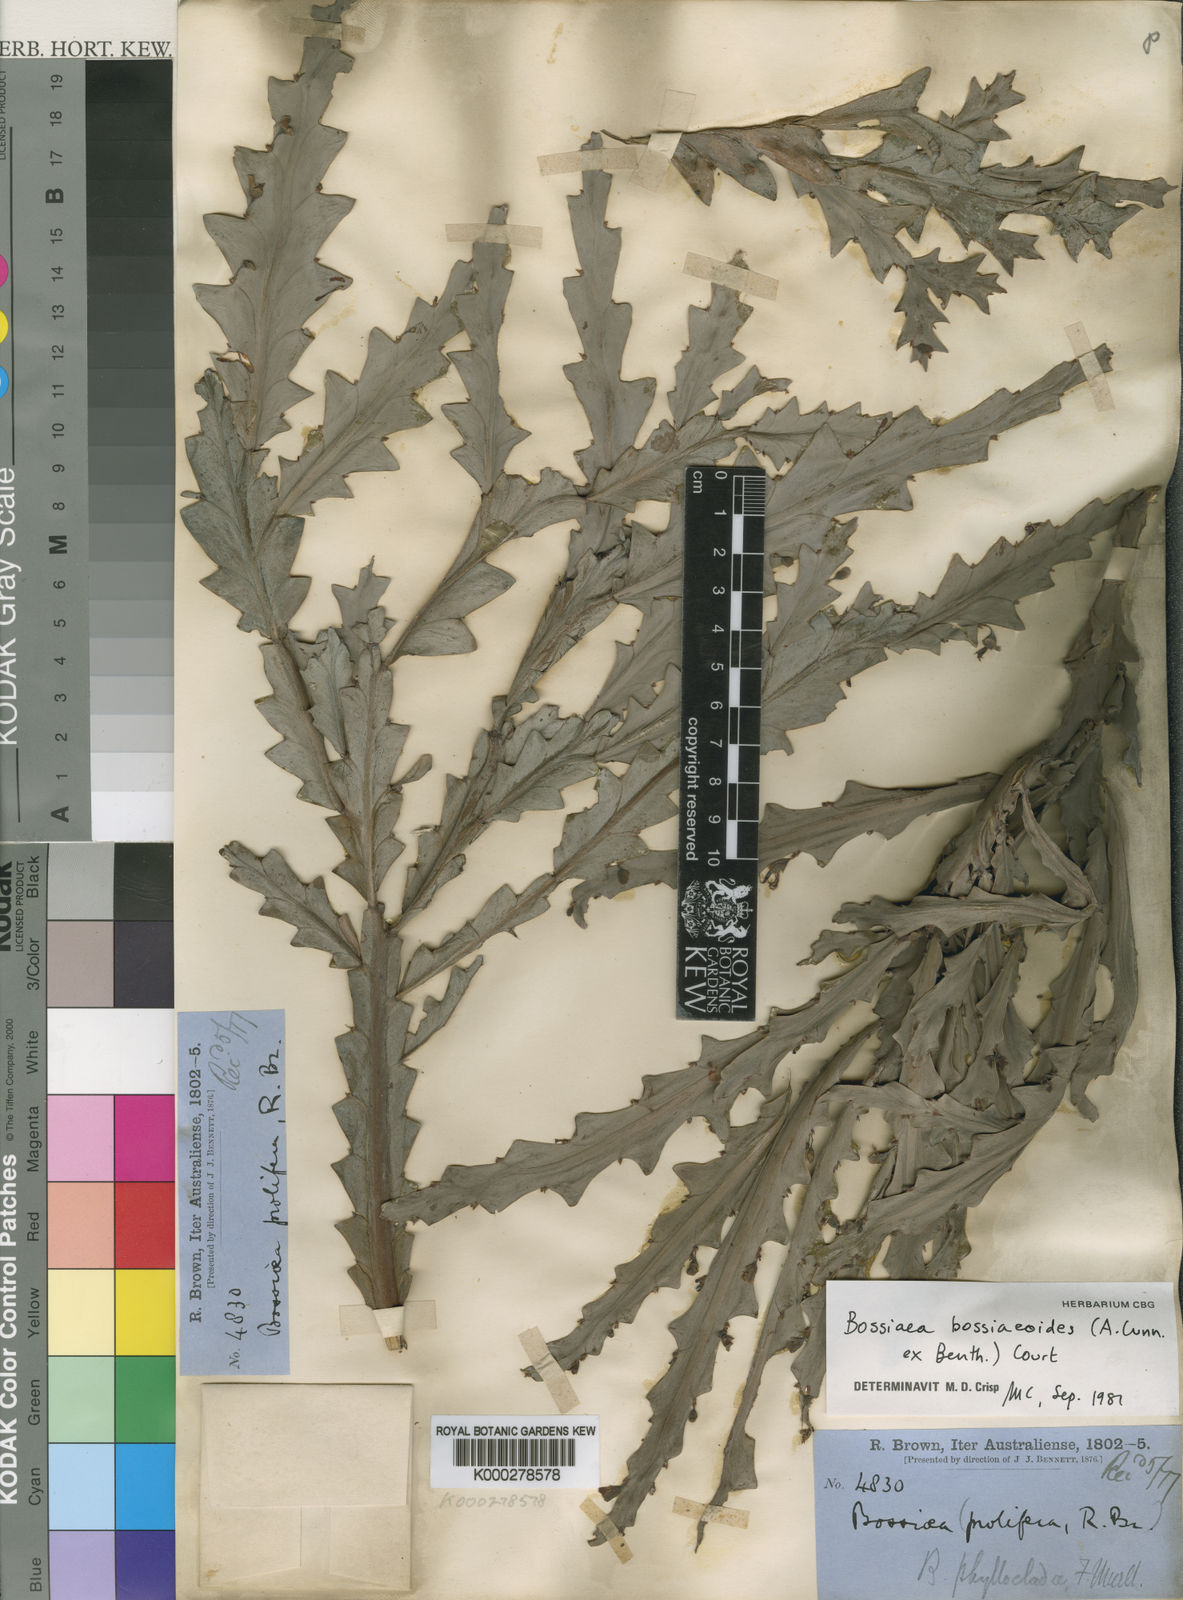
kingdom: Plantae
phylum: Tracheophyta
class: Magnoliopsida
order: Fabales
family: Fabaceae
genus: Bossiaea
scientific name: Bossiaea bossiaeoides
